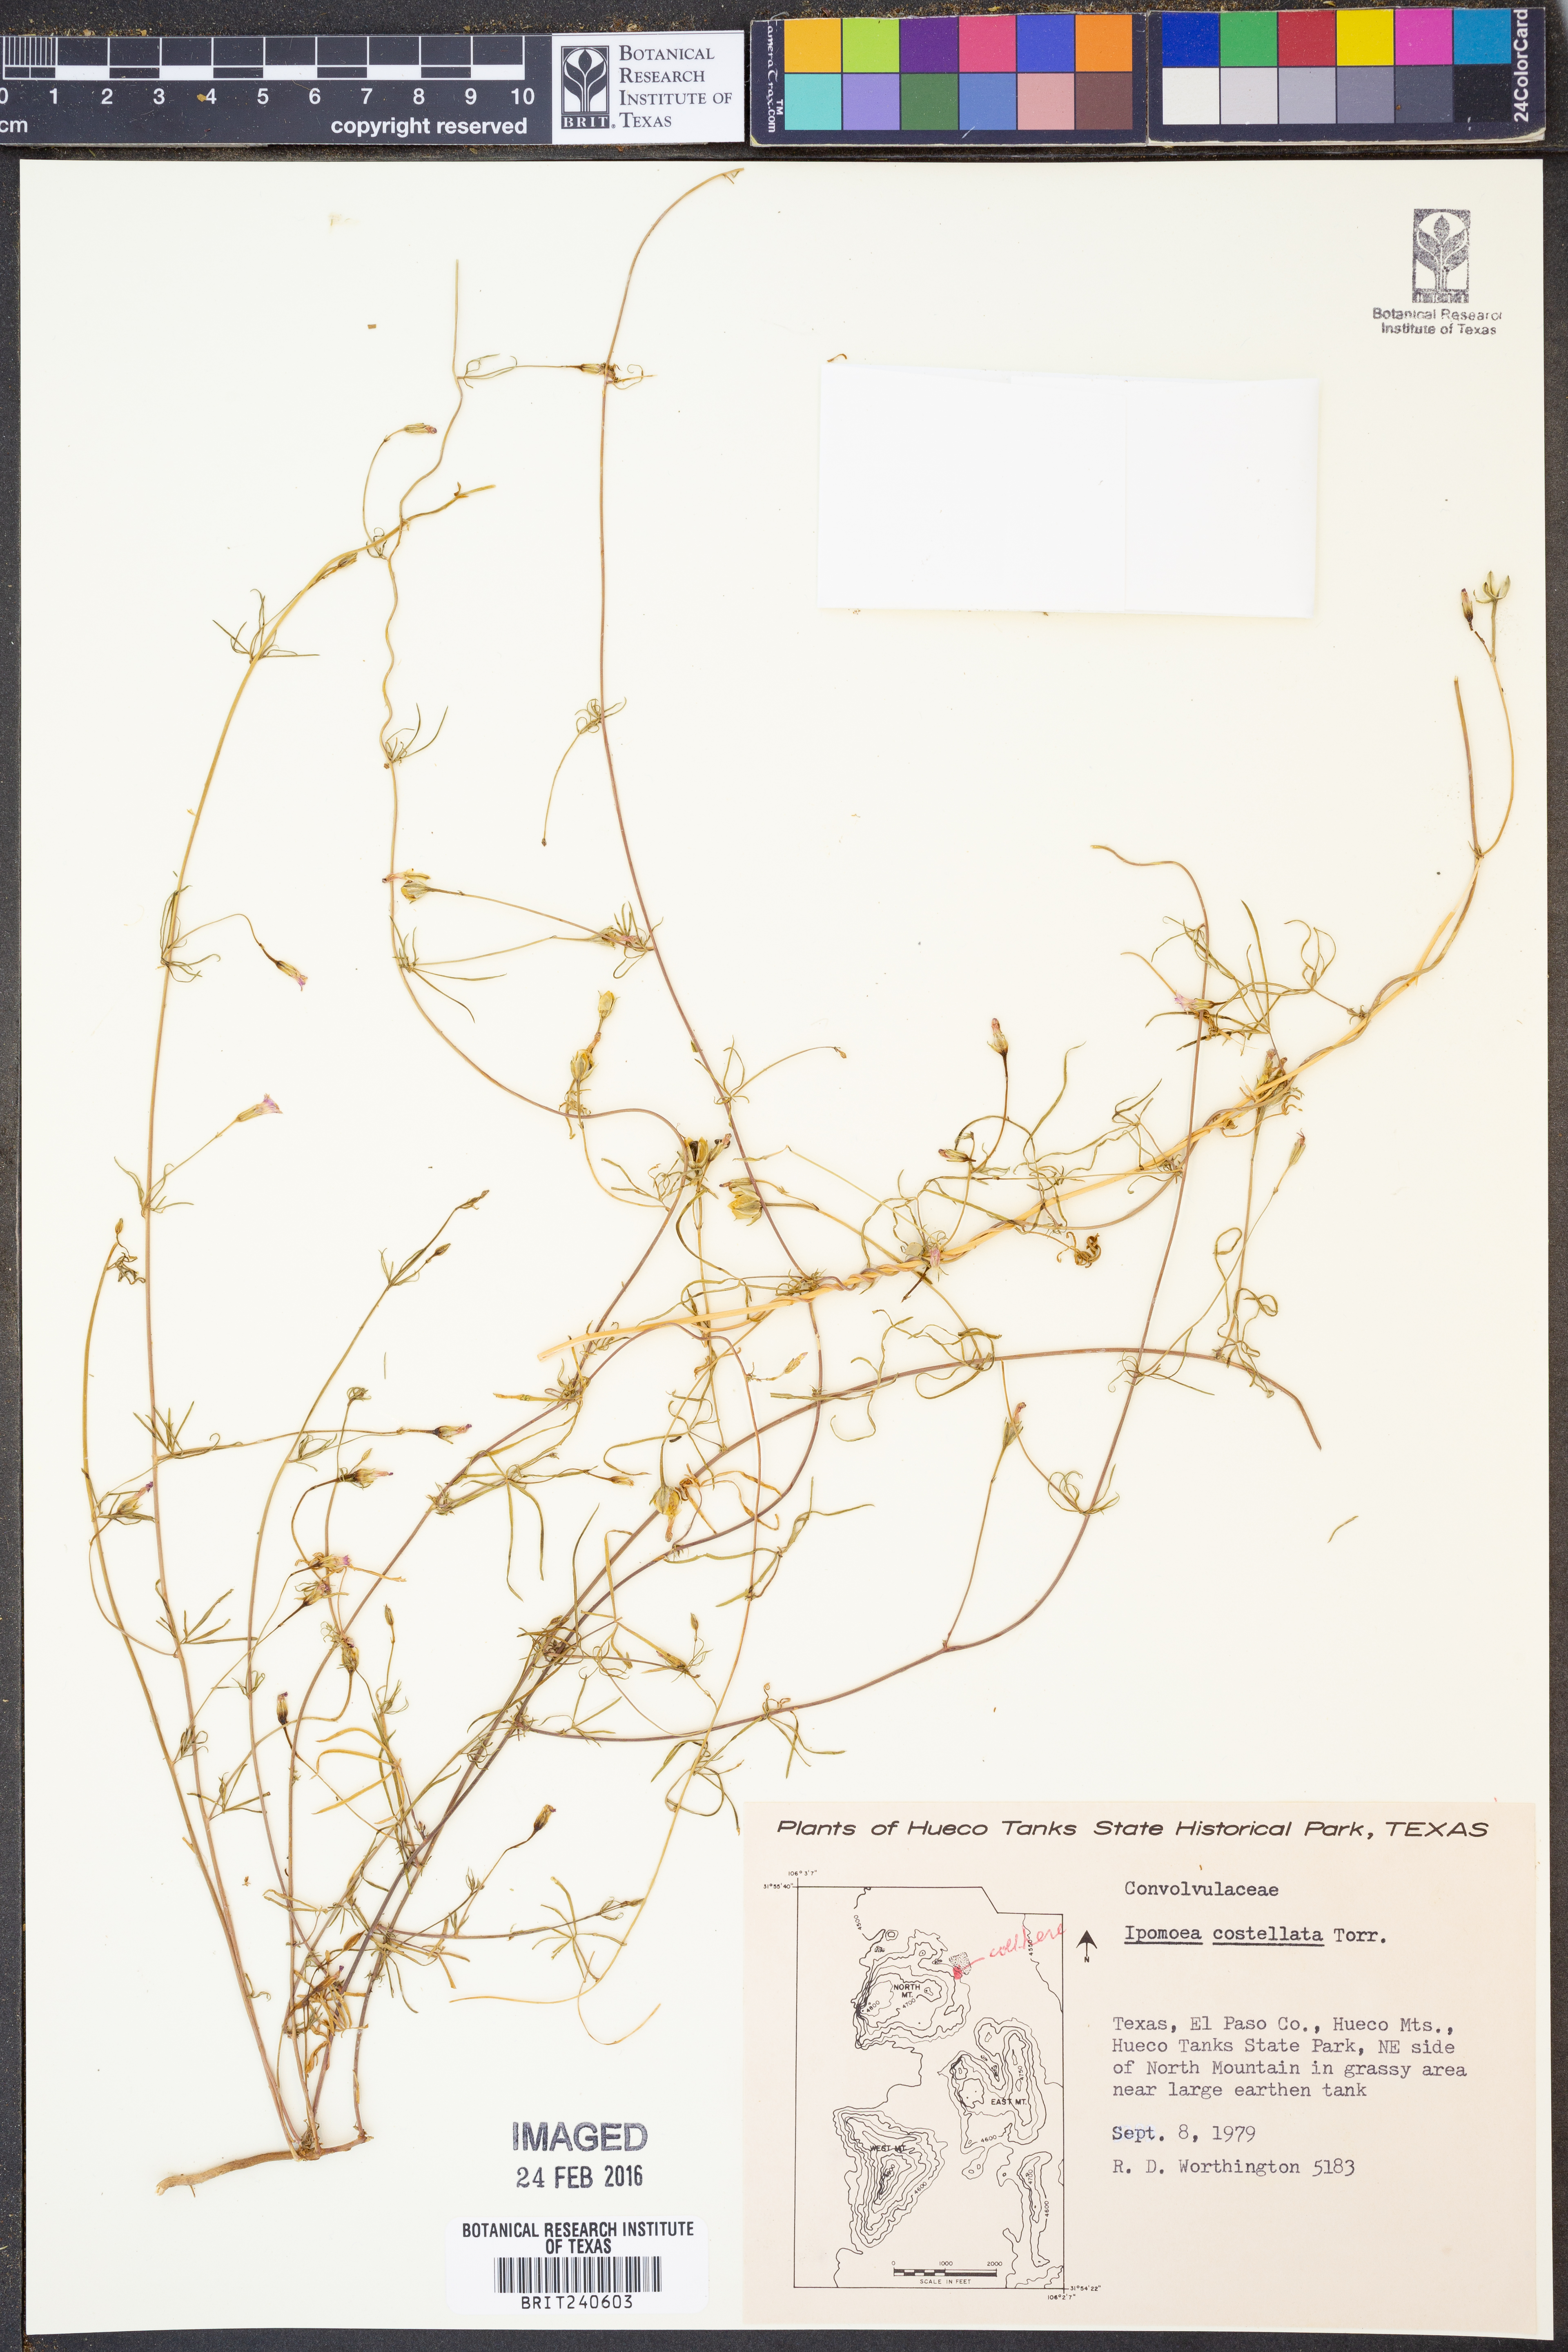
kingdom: Plantae
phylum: Tracheophyta
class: Magnoliopsida
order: Solanales
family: Convolvulaceae
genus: Ipomoea
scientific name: Ipomoea costellata
